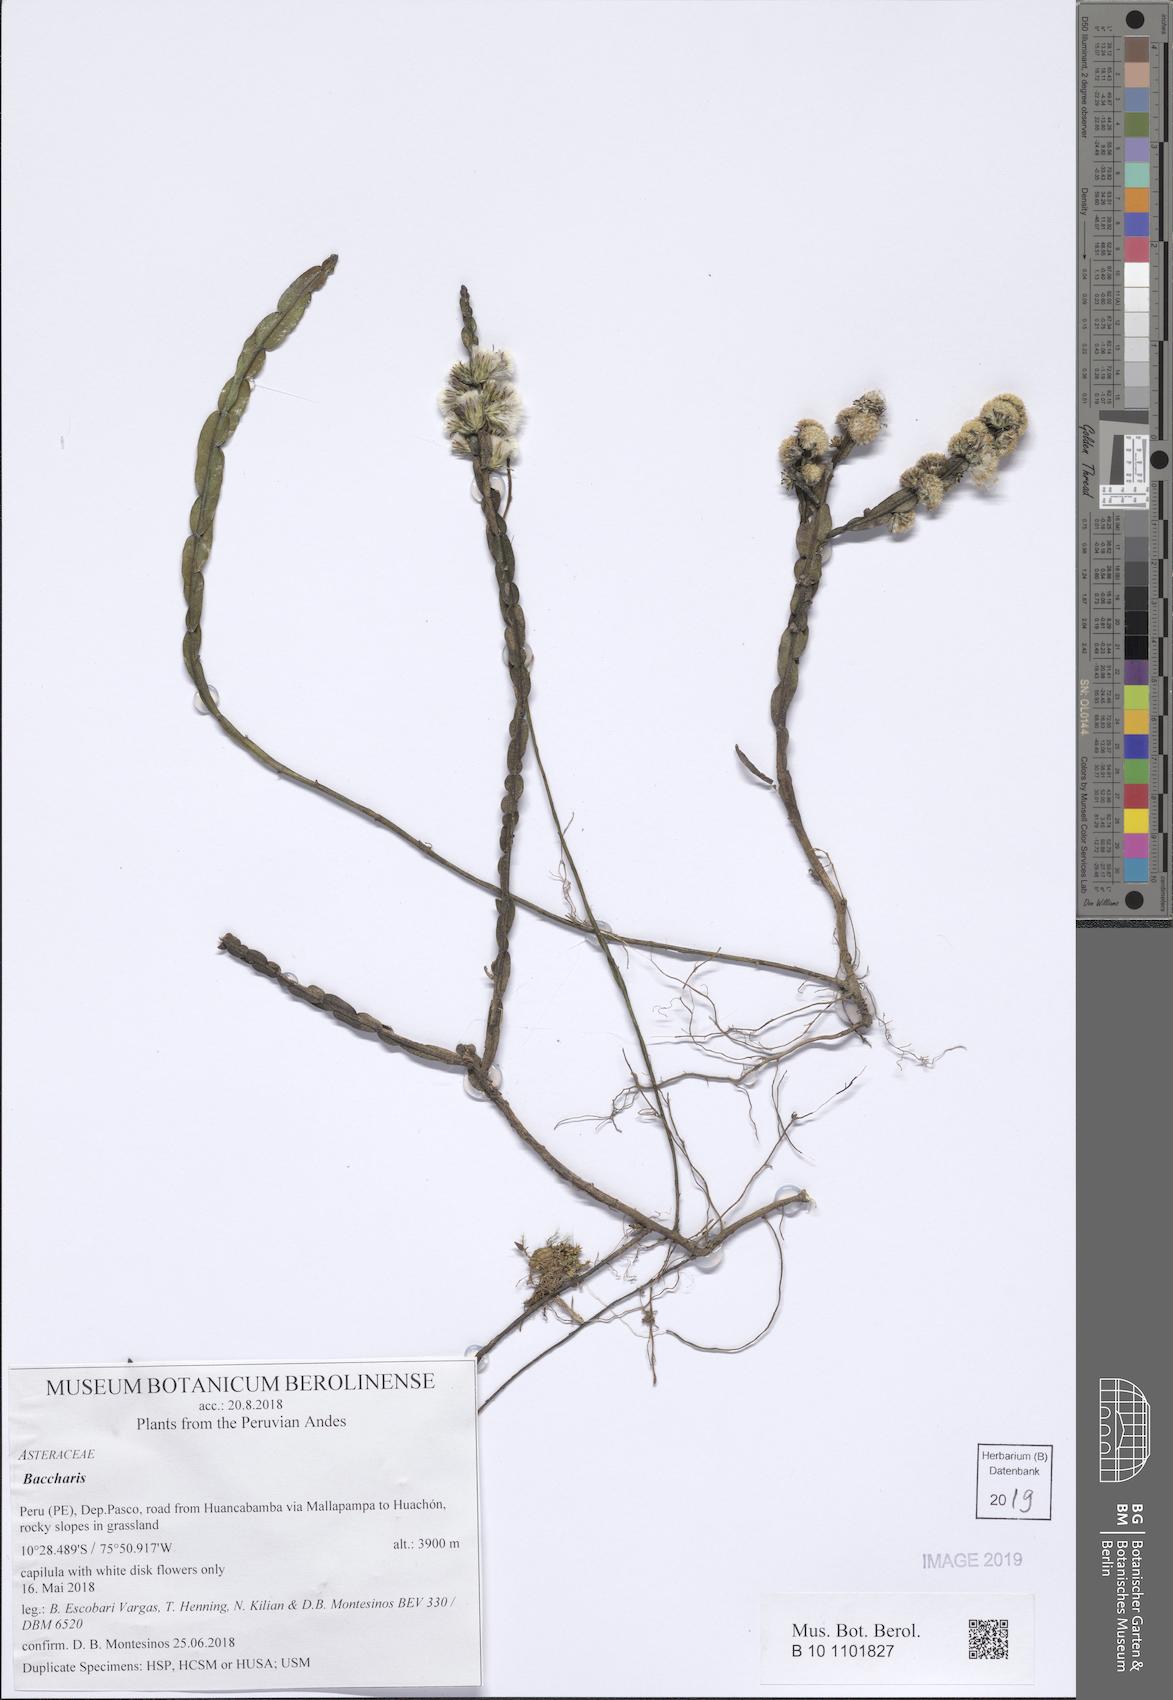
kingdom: Plantae
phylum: Tracheophyta
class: Magnoliopsida
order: Asterales
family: Asteraceae
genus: Baccharis
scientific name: Baccharis genistelloides
